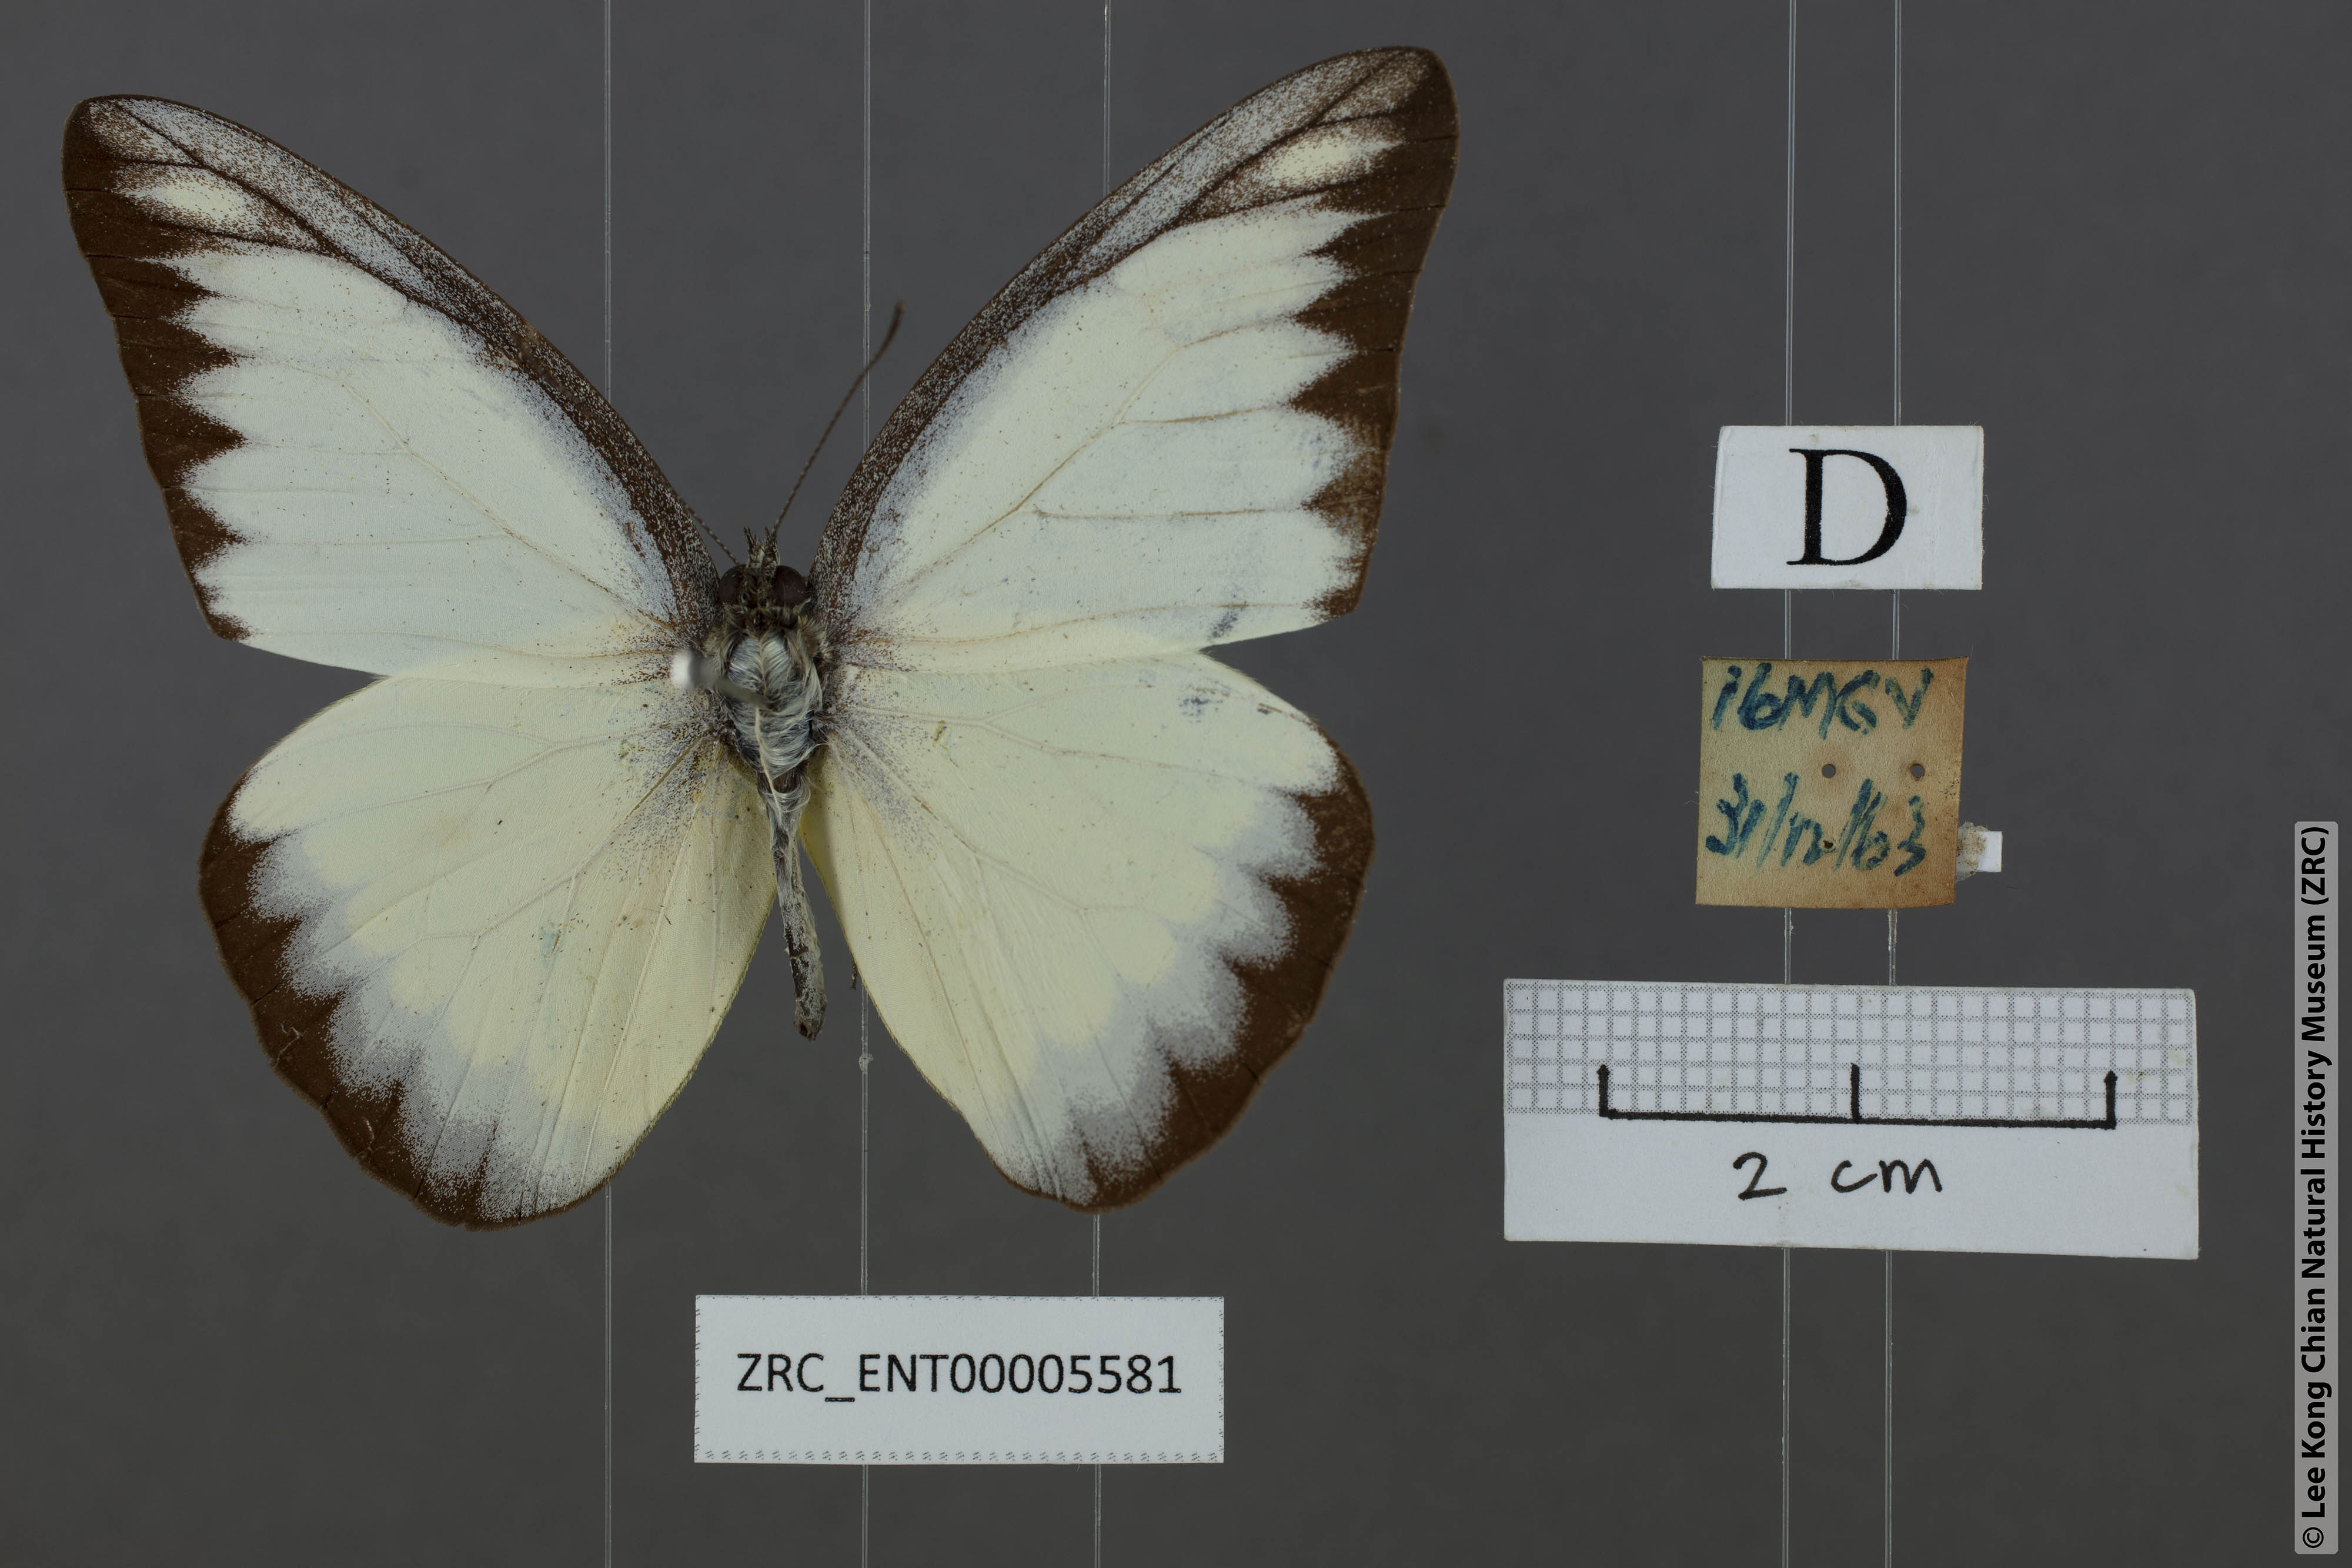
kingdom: Animalia
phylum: Arthropoda
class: Insecta
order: Lepidoptera
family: Pieridae
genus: Appias
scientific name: Appias lyncida
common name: Chocolate albatross
